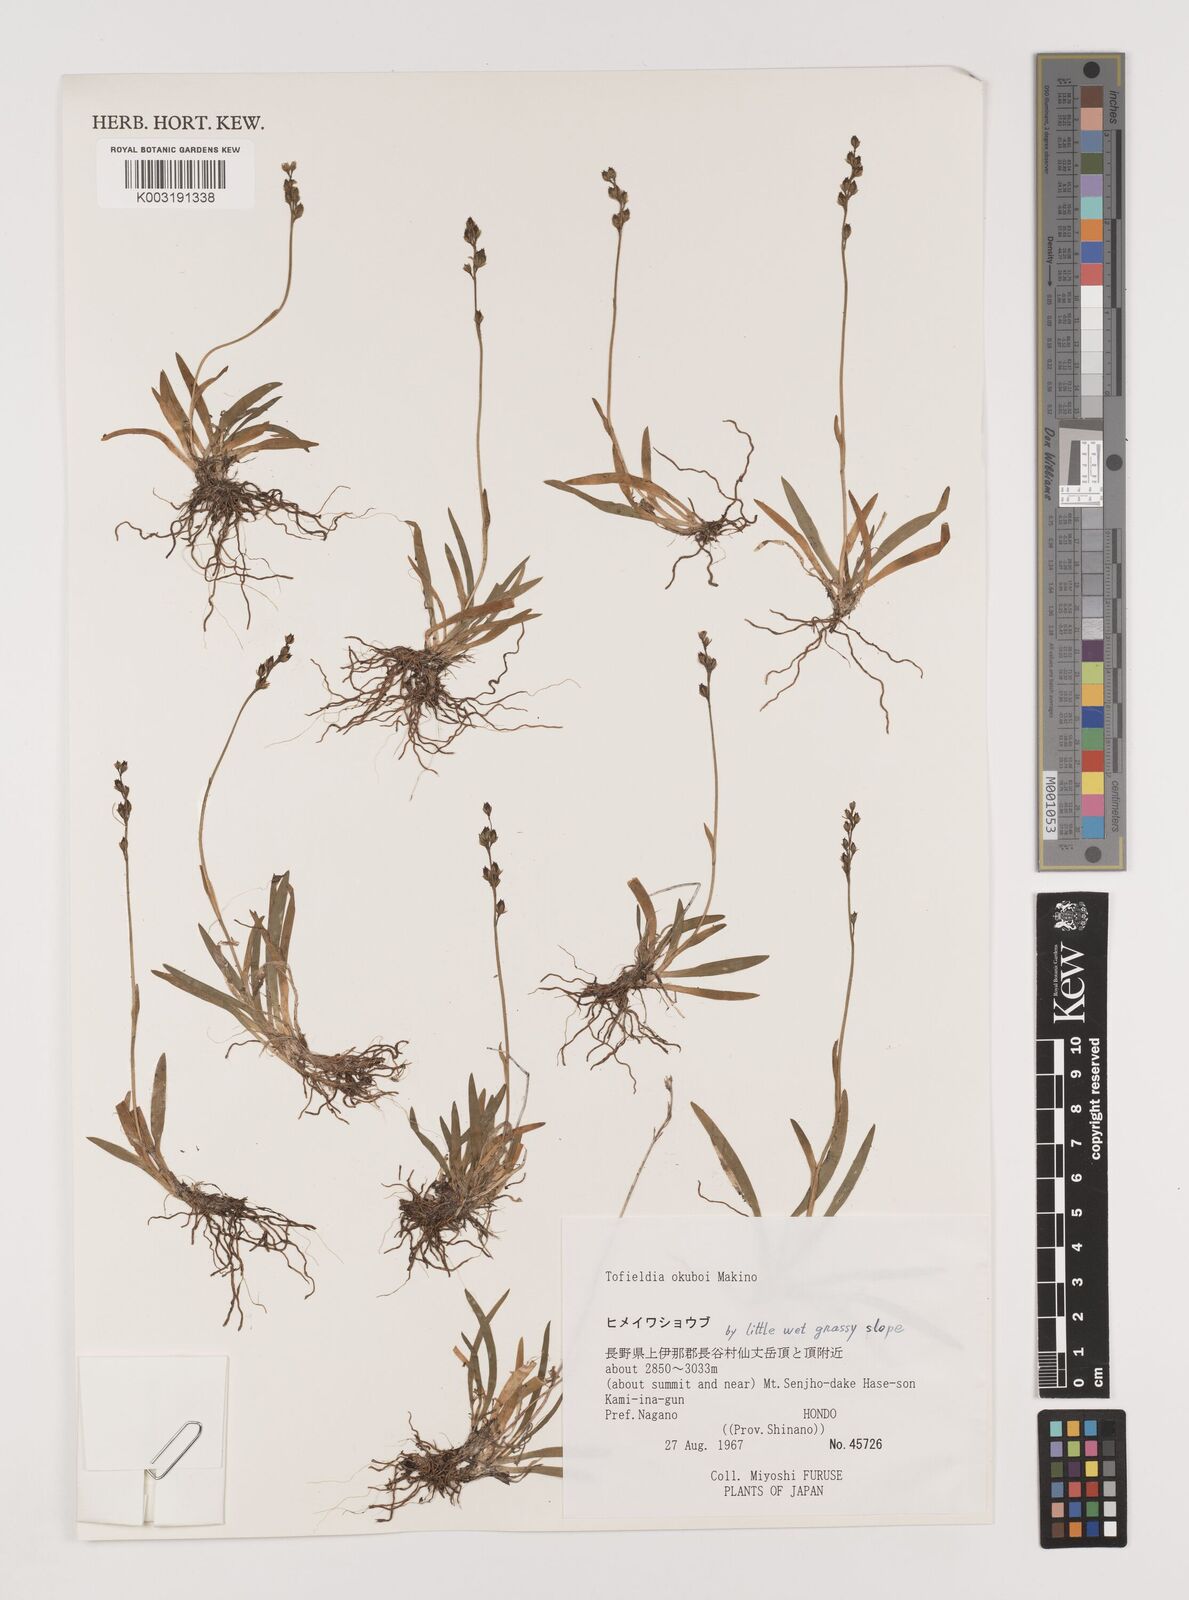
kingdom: Plantae
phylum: Tracheophyta
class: Liliopsida
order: Alismatales
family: Tofieldiaceae
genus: Tofieldia
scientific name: Tofieldia okuboi
